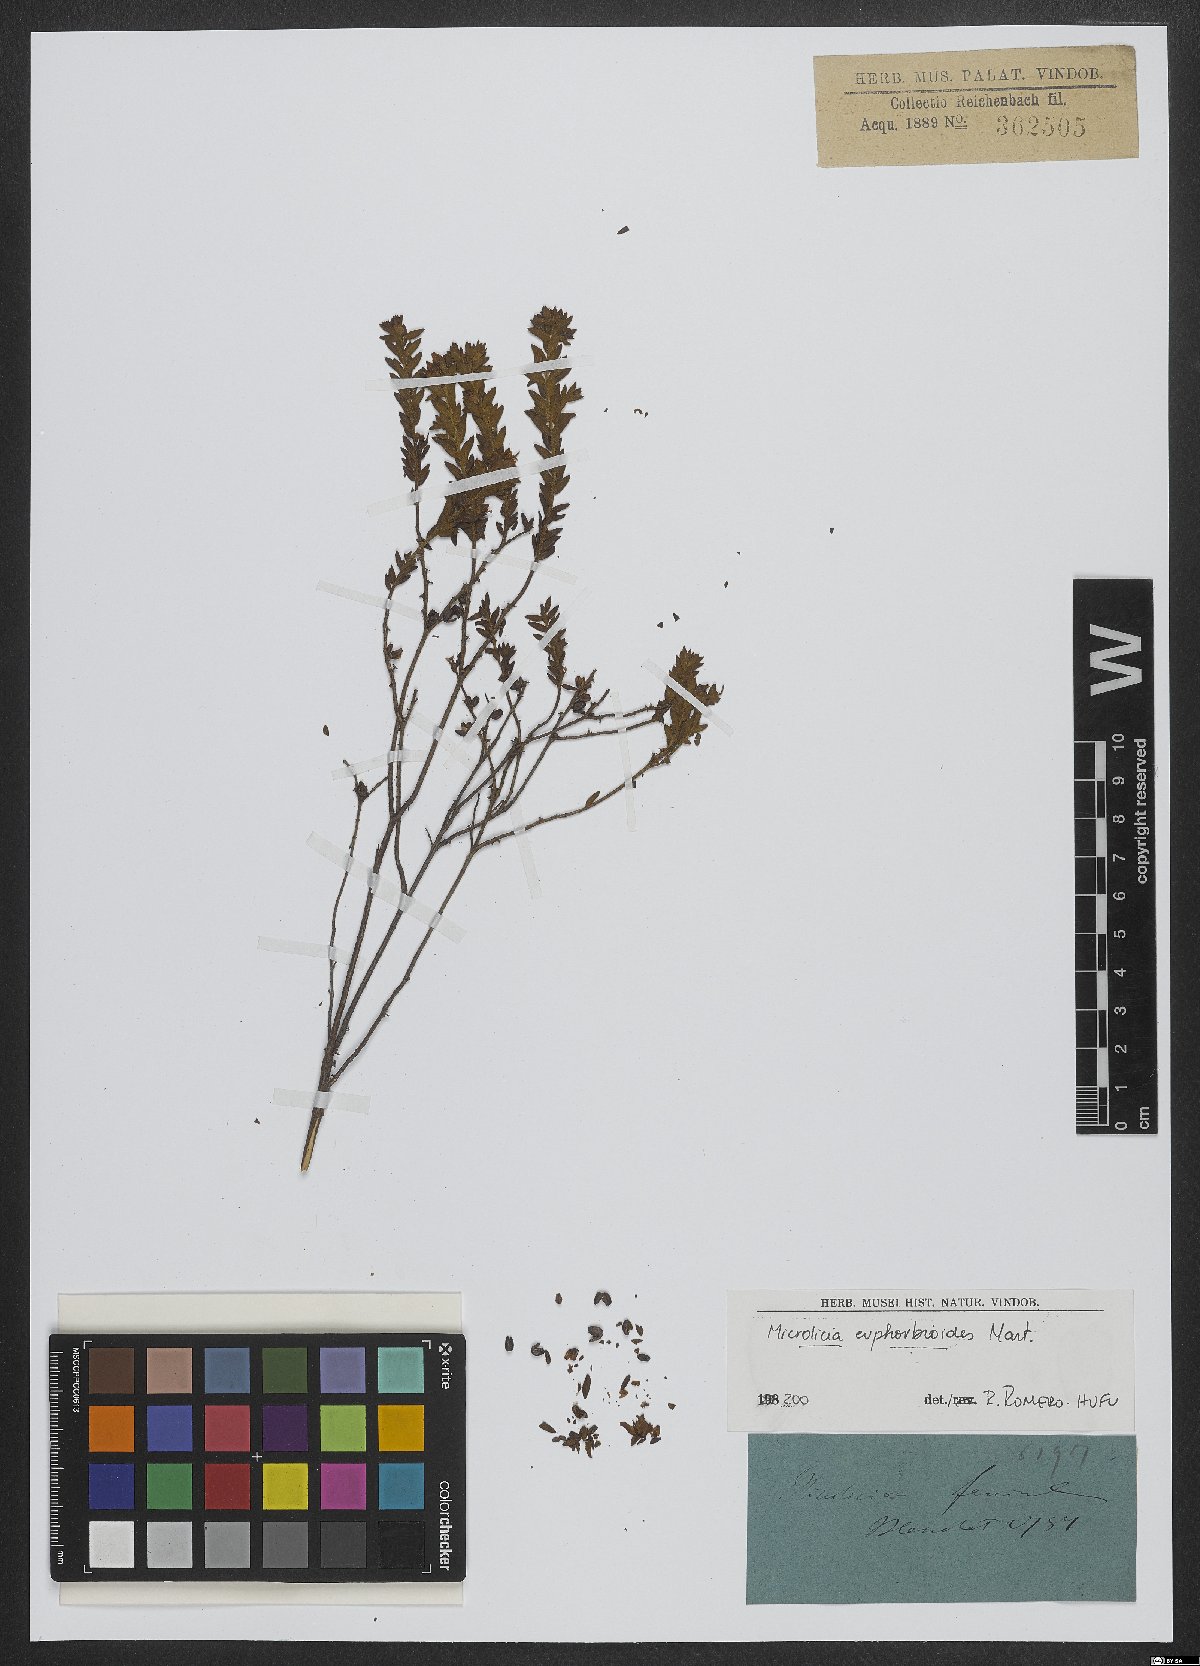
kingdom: Plantae
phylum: Tracheophyta
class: Magnoliopsida
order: Myrtales
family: Melastomataceae
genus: Microlicia
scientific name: Microlicia euphorbioides
